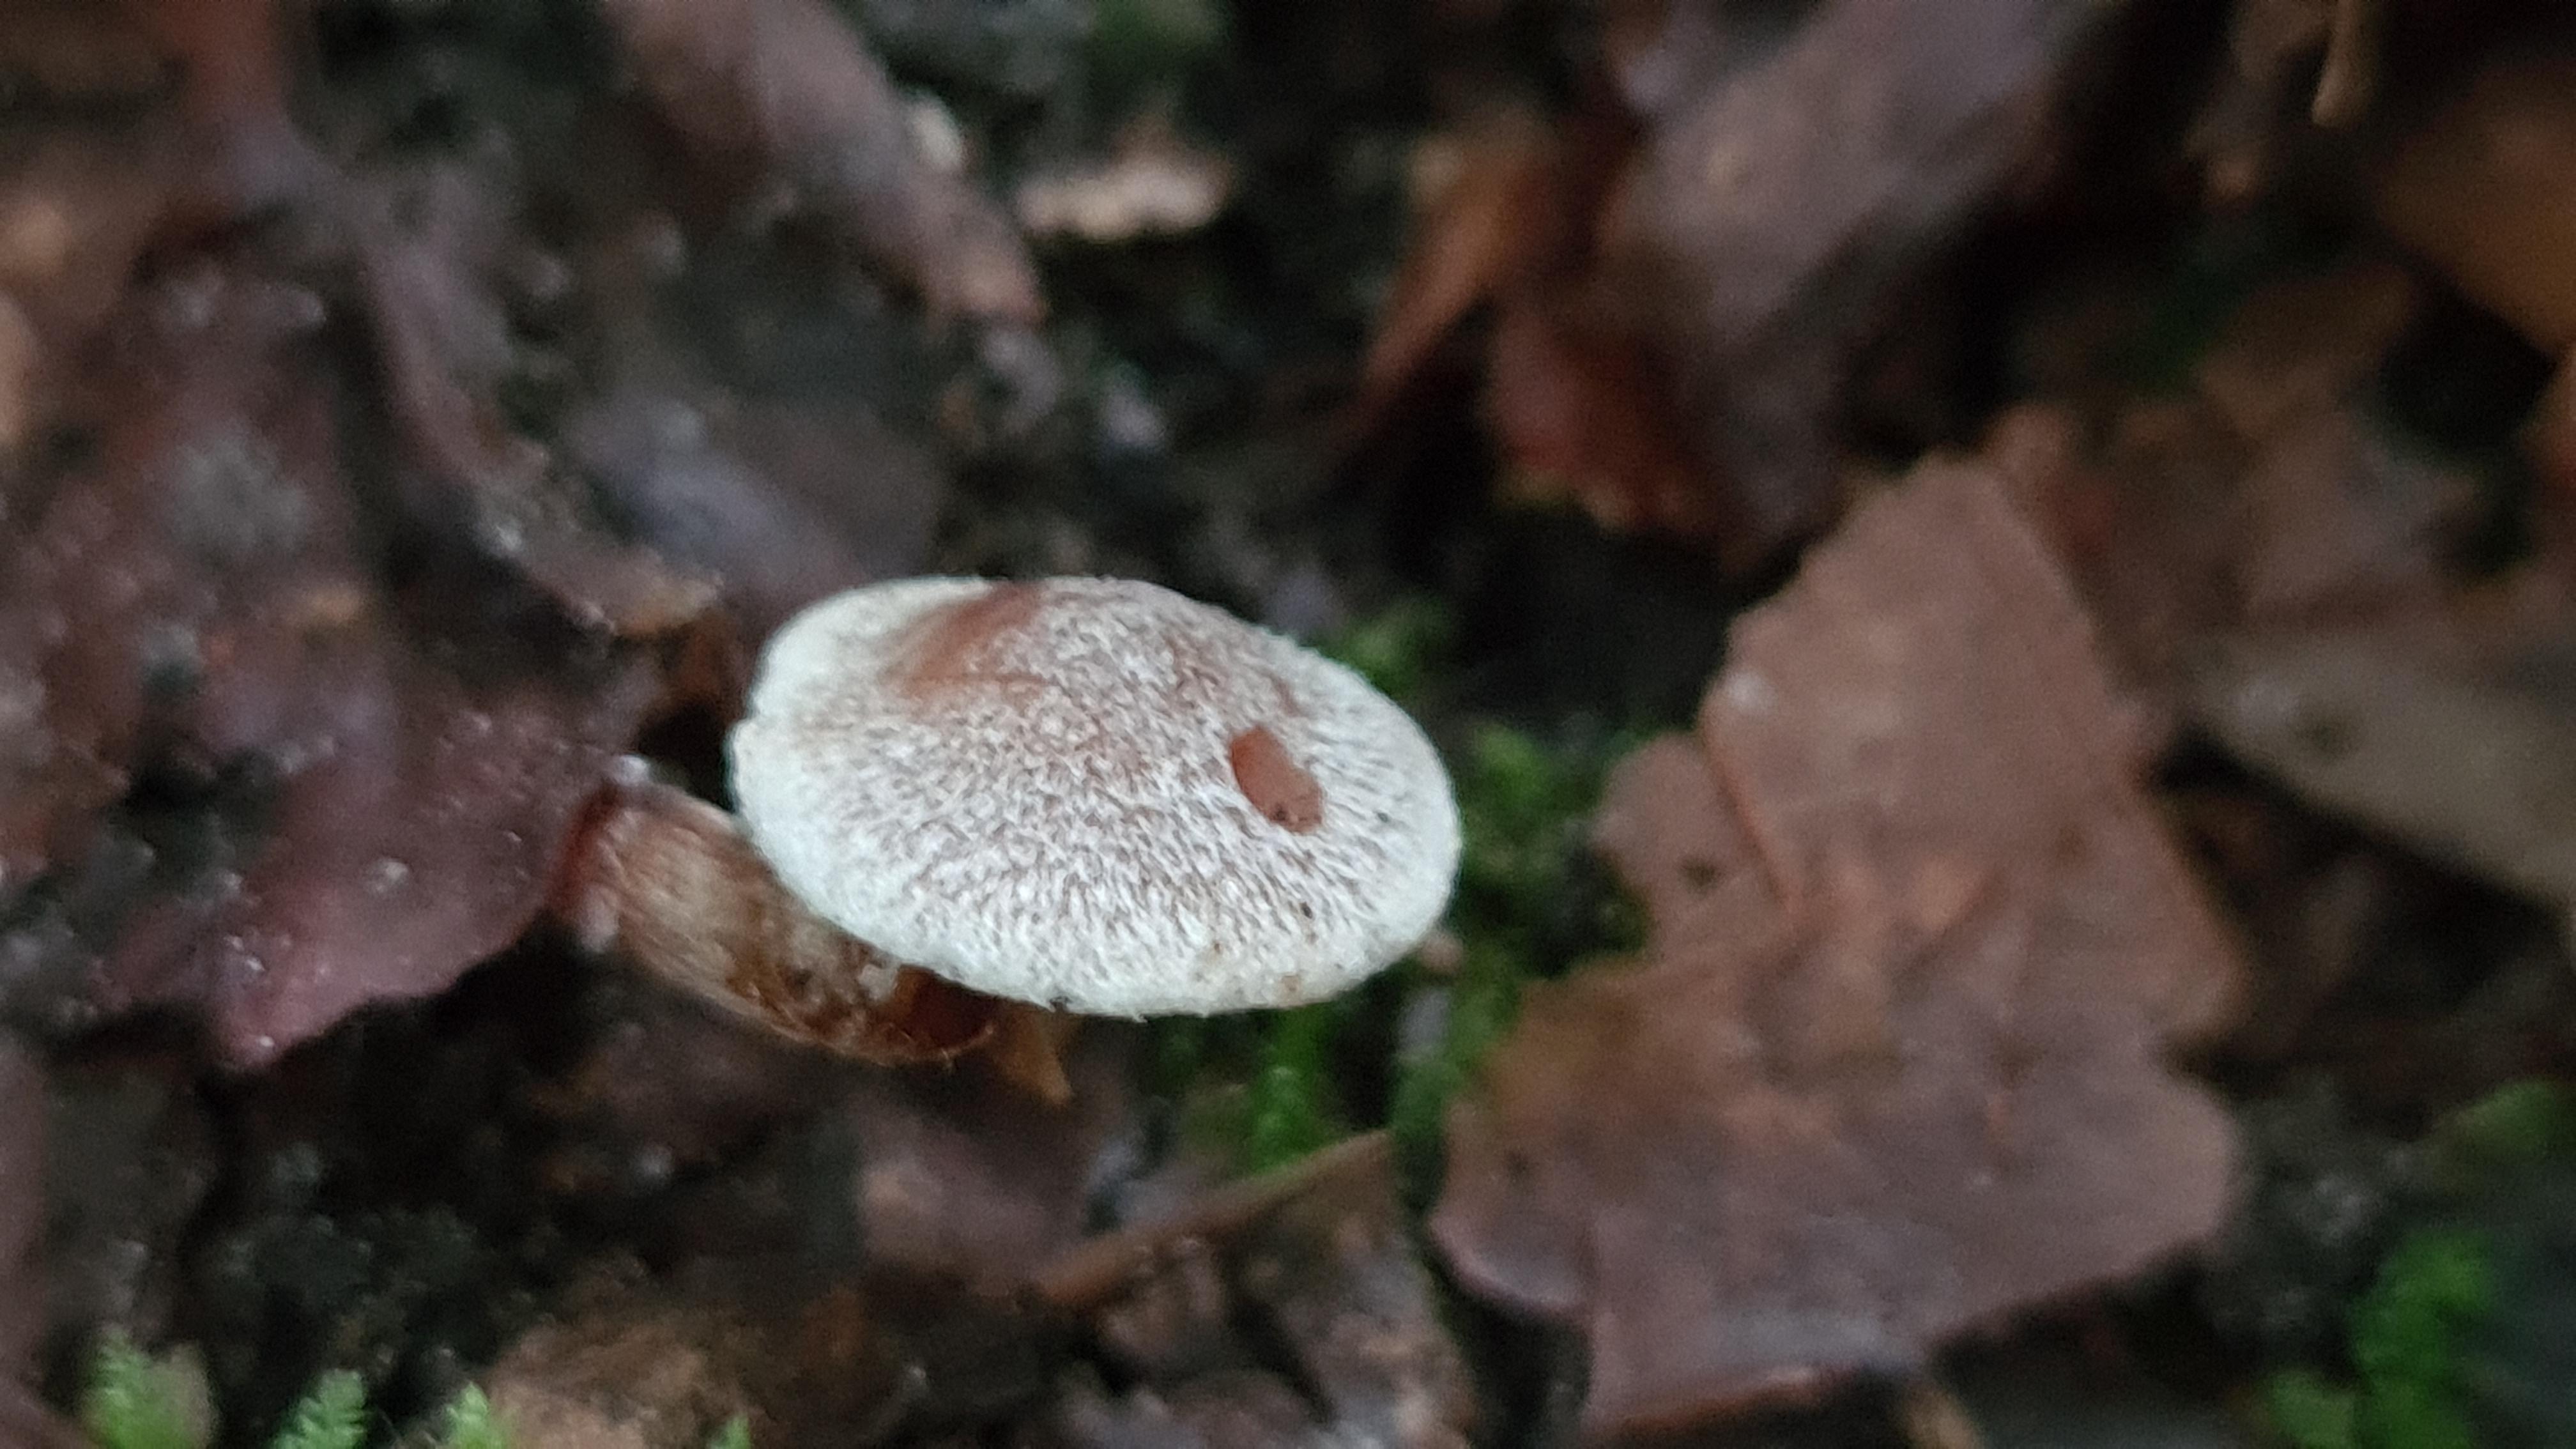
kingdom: Fungi
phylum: Basidiomycota
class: Agaricomycetes
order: Agaricales
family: Cortinariaceae
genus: Cortinarius
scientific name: Cortinarius geraniolens
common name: geranium-slørhat
